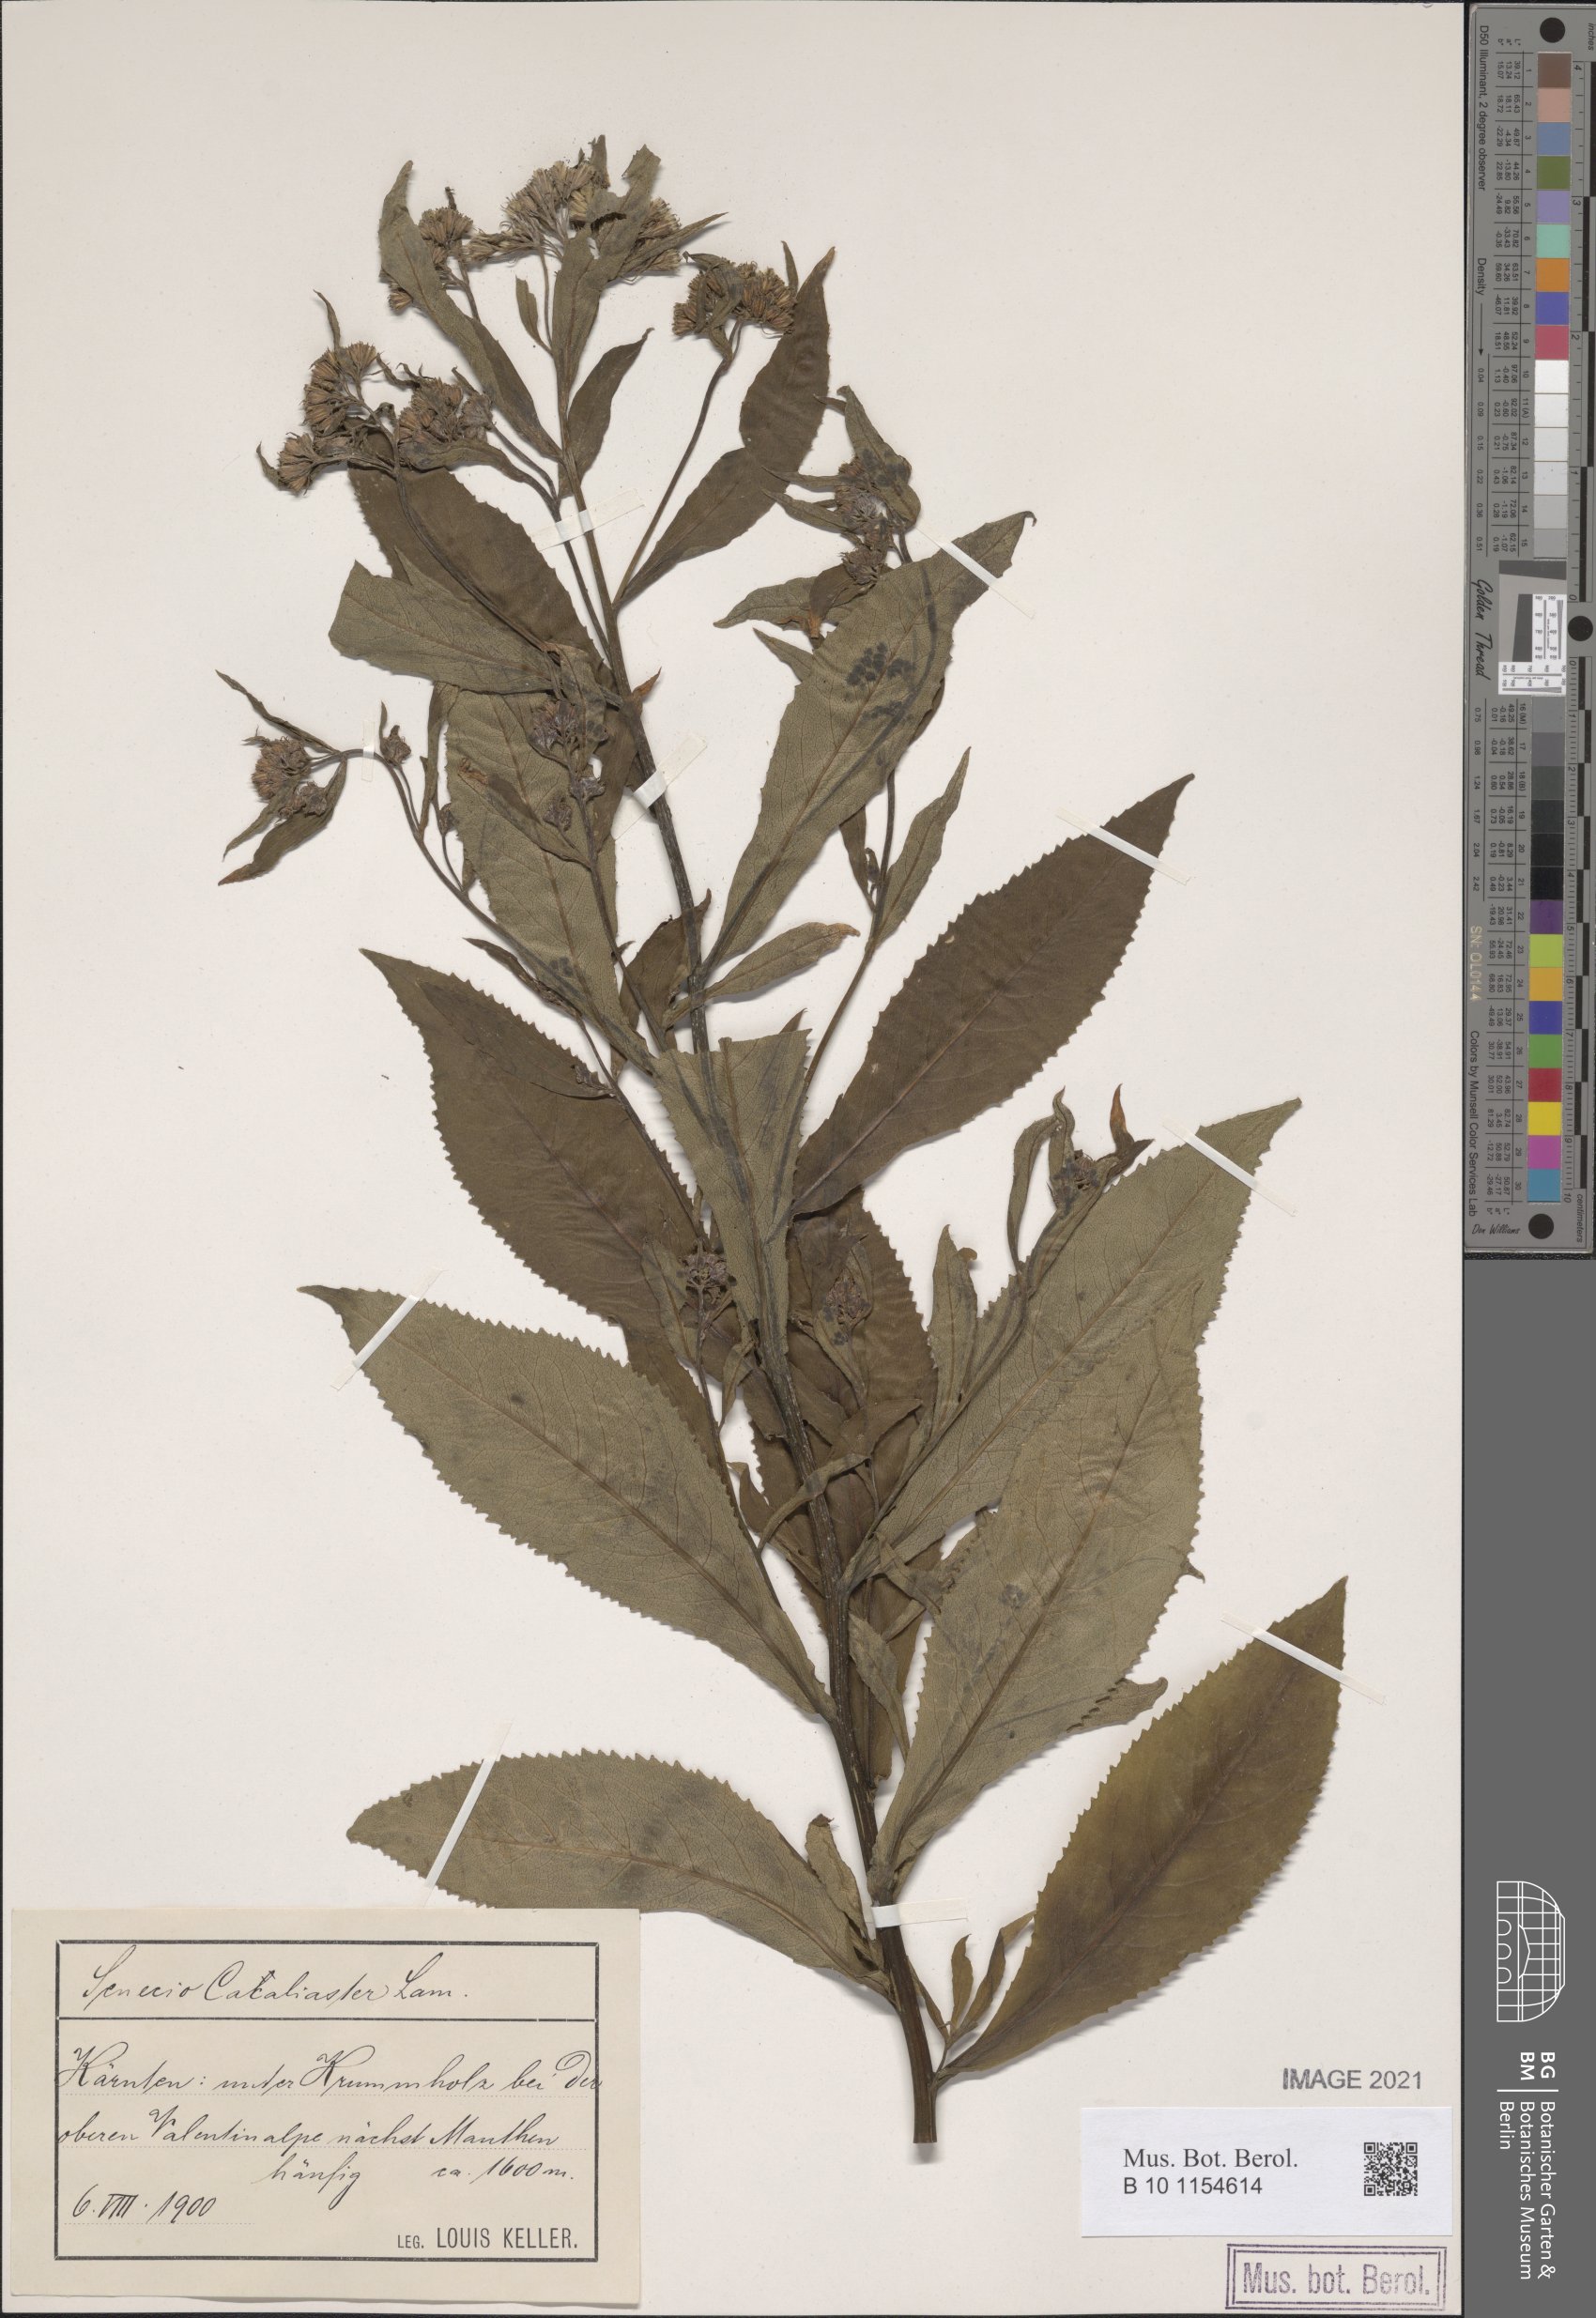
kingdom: Plantae
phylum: Tracheophyta
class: Magnoliopsida
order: Asterales
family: Asteraceae
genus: Senecio
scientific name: Senecio cacaliaster
